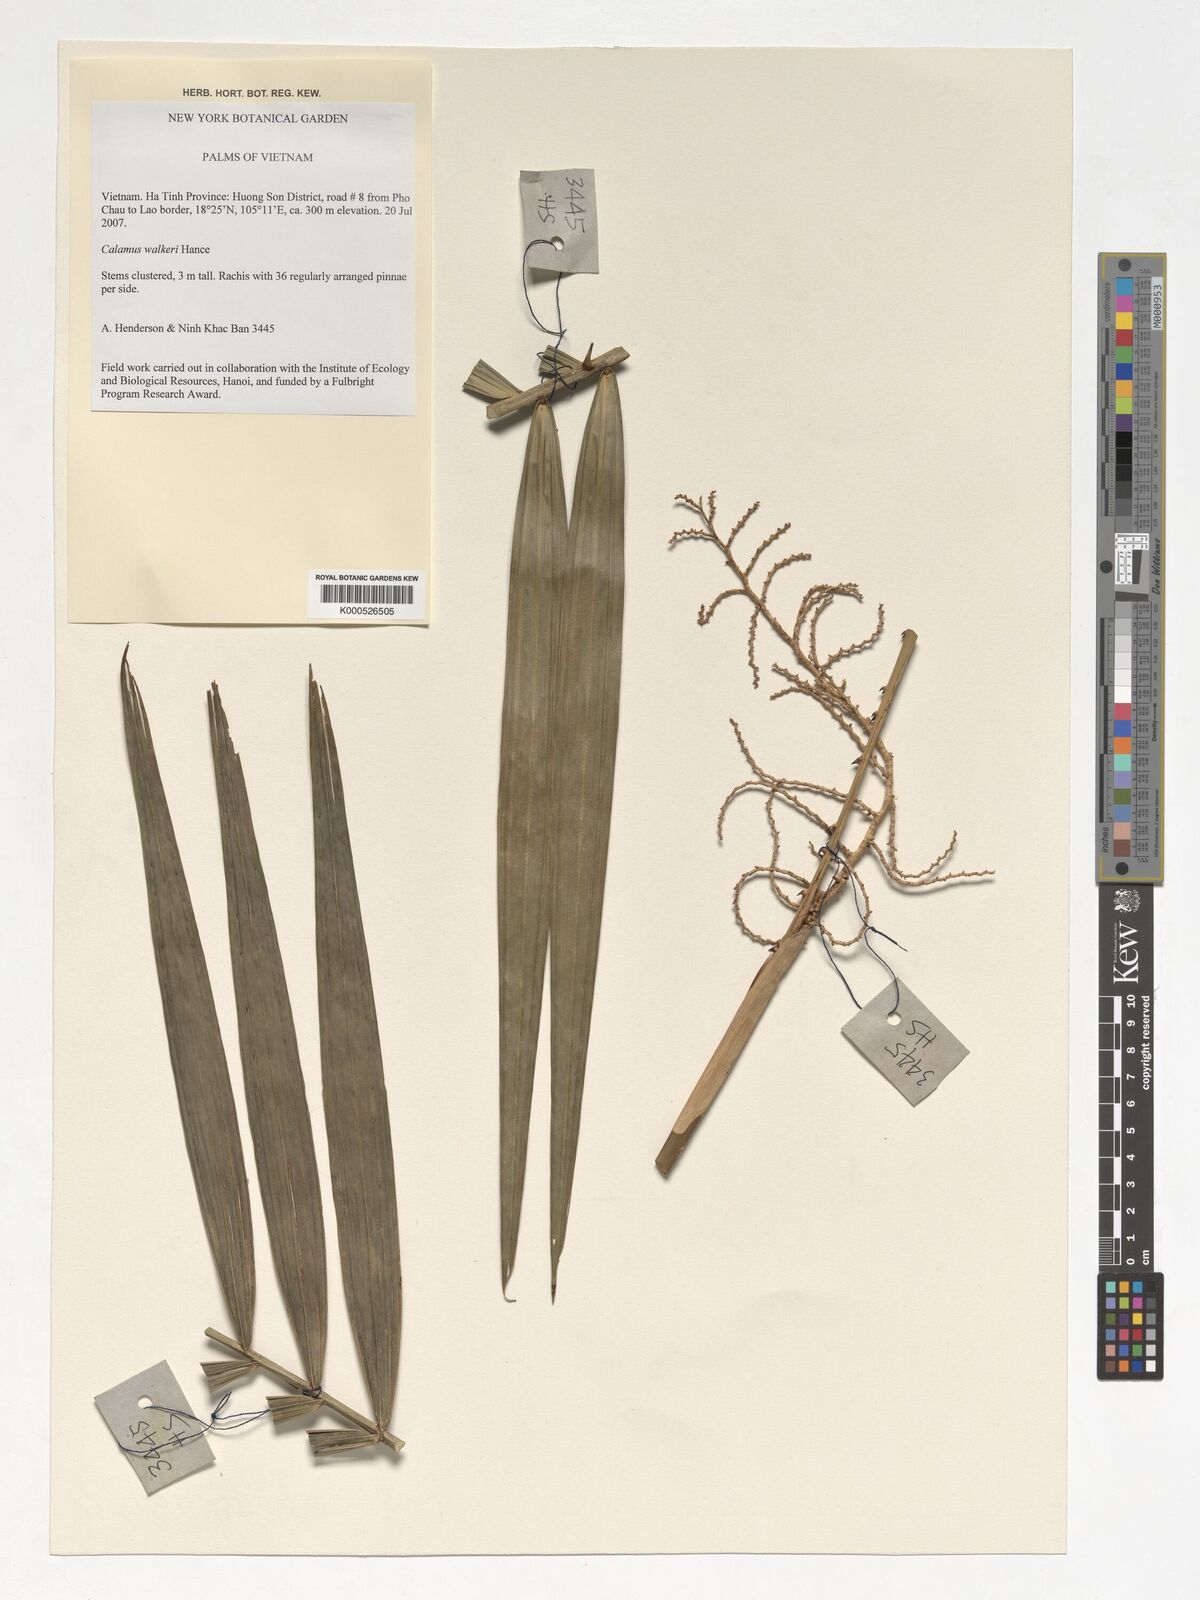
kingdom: Plantae
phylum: Tracheophyta
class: Liliopsida
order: Arecales
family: Arecaceae
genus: Calamus
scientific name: Calamus walkeri
